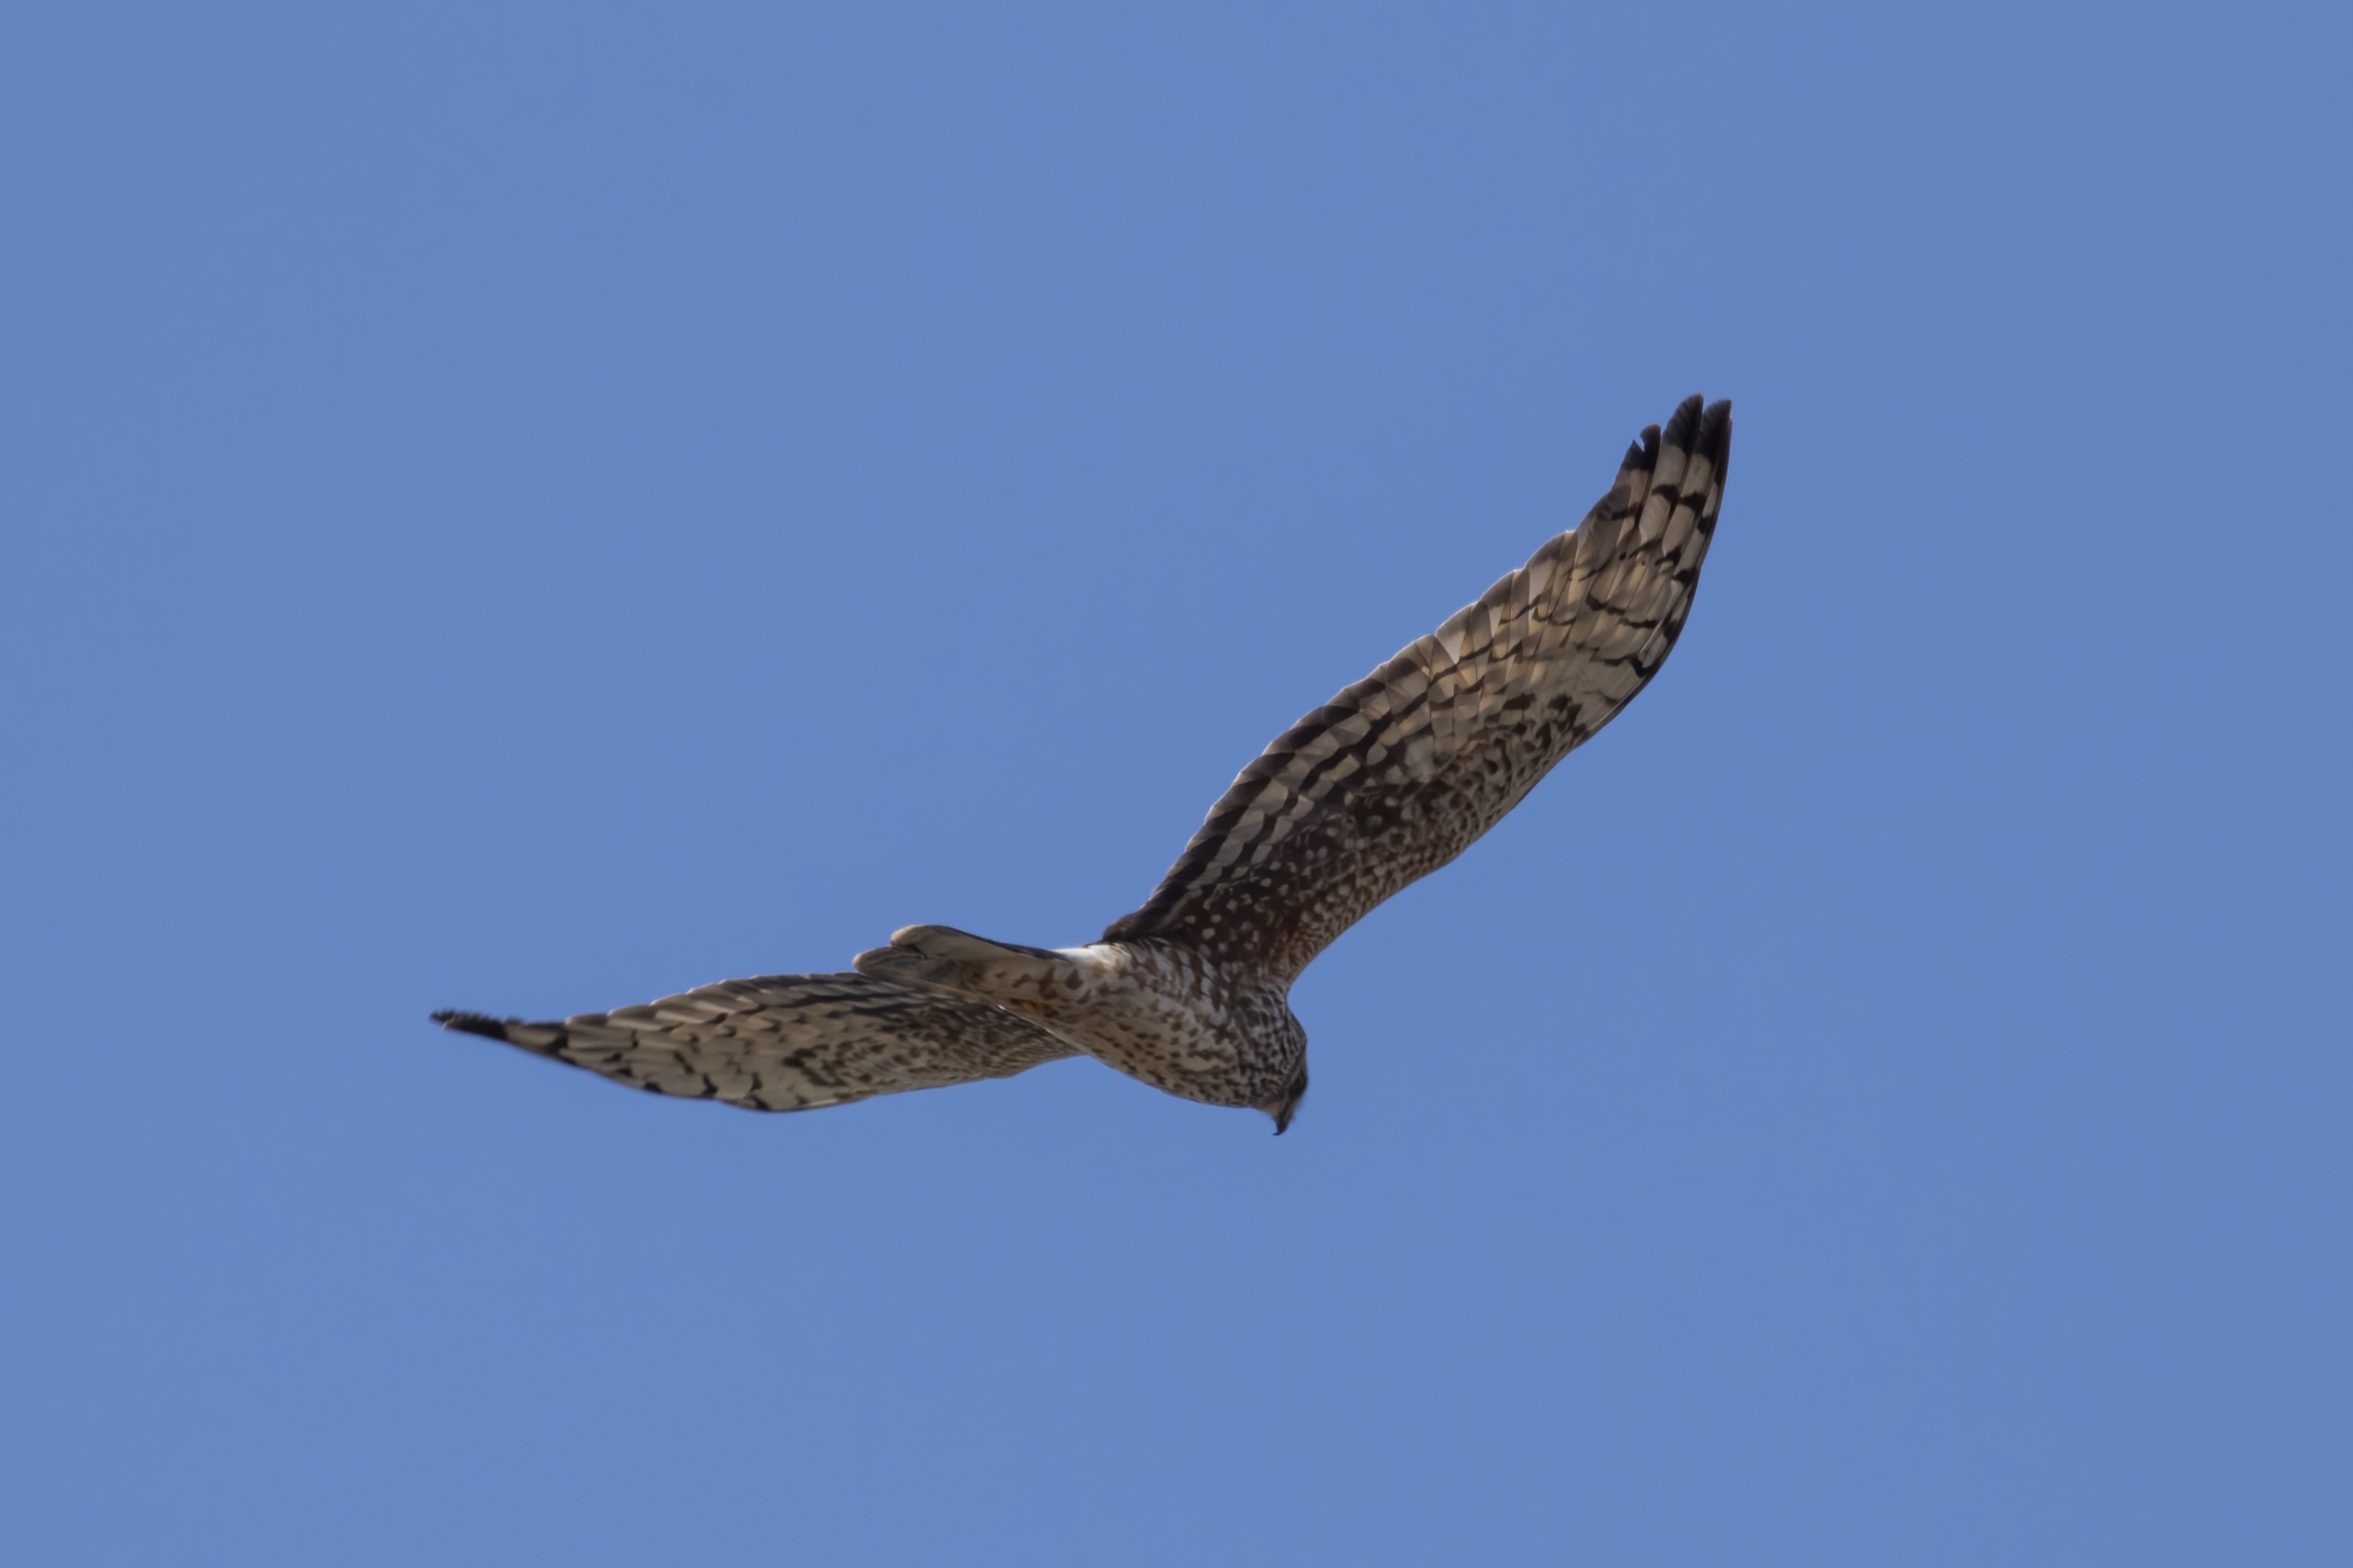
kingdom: Animalia
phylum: Chordata
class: Aves
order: Accipitriformes
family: Accipitridae
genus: Circus
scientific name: Circus cyaneus
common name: Blå kærhøg
